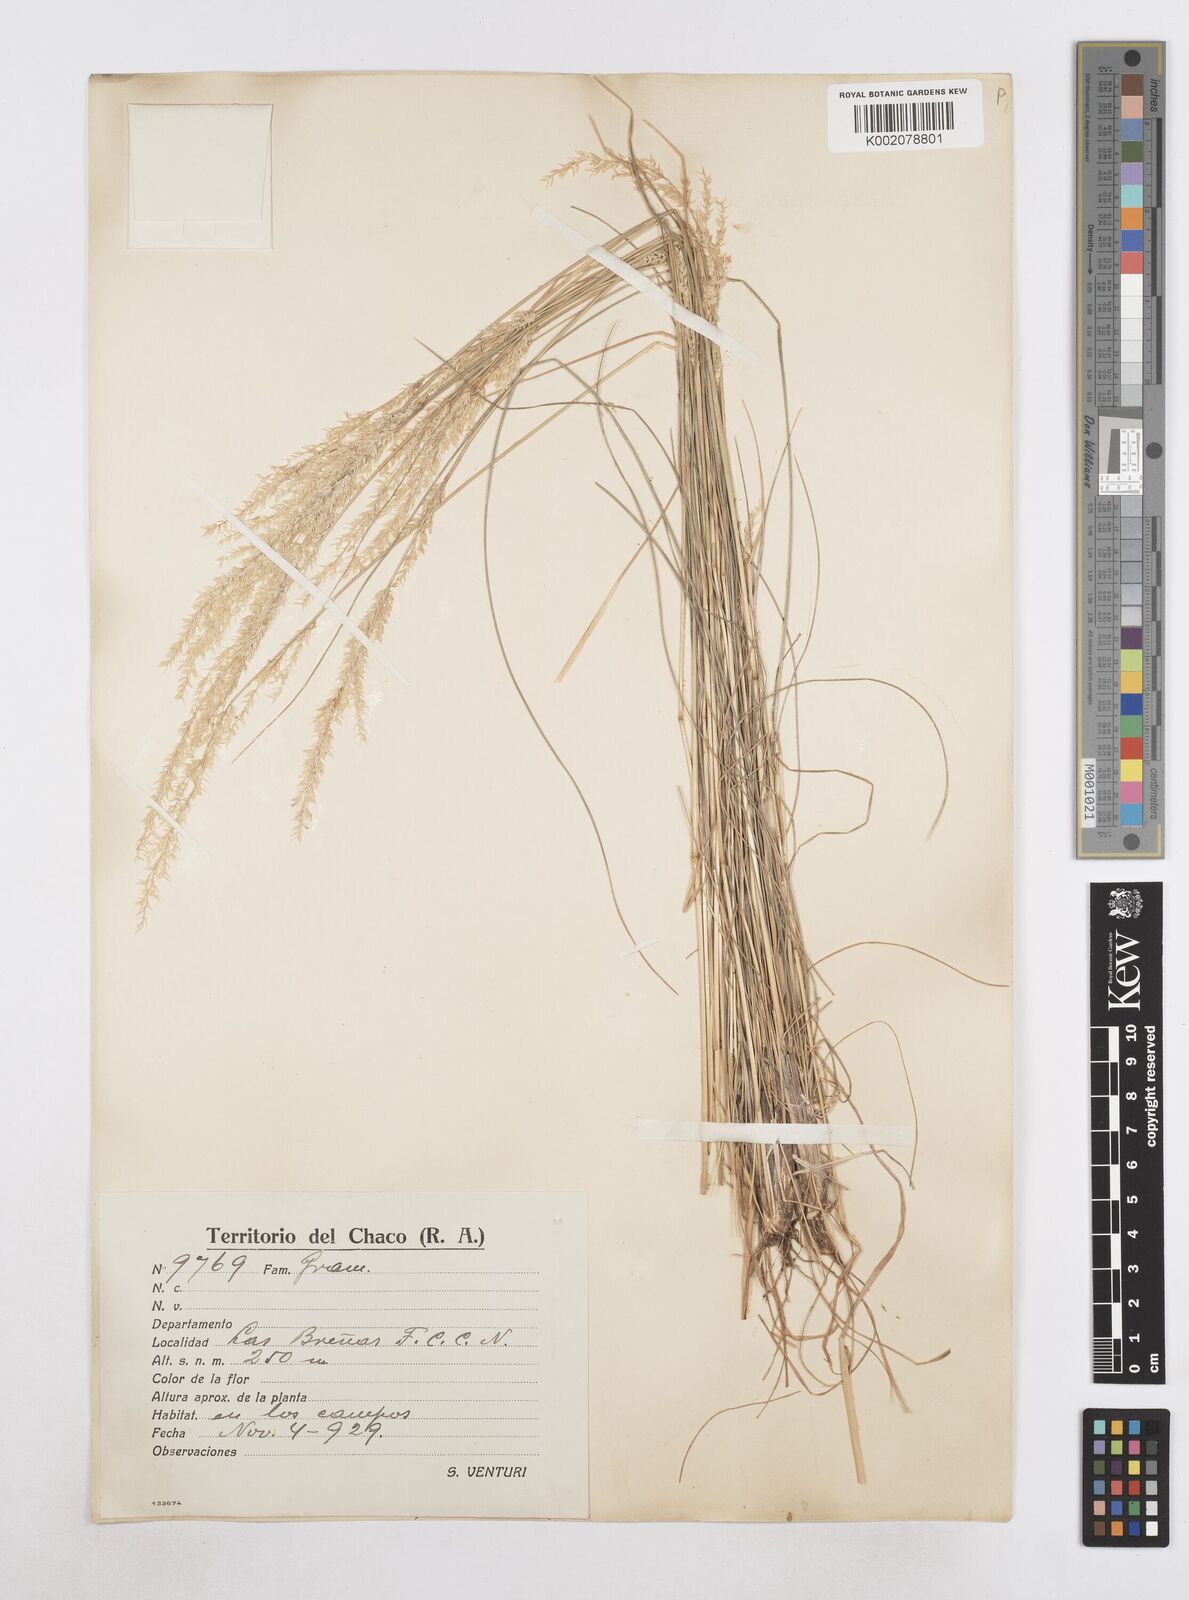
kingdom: Plantae
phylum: Tracheophyta
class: Liliopsida
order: Poales
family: Poaceae
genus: Poa
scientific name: Poa
